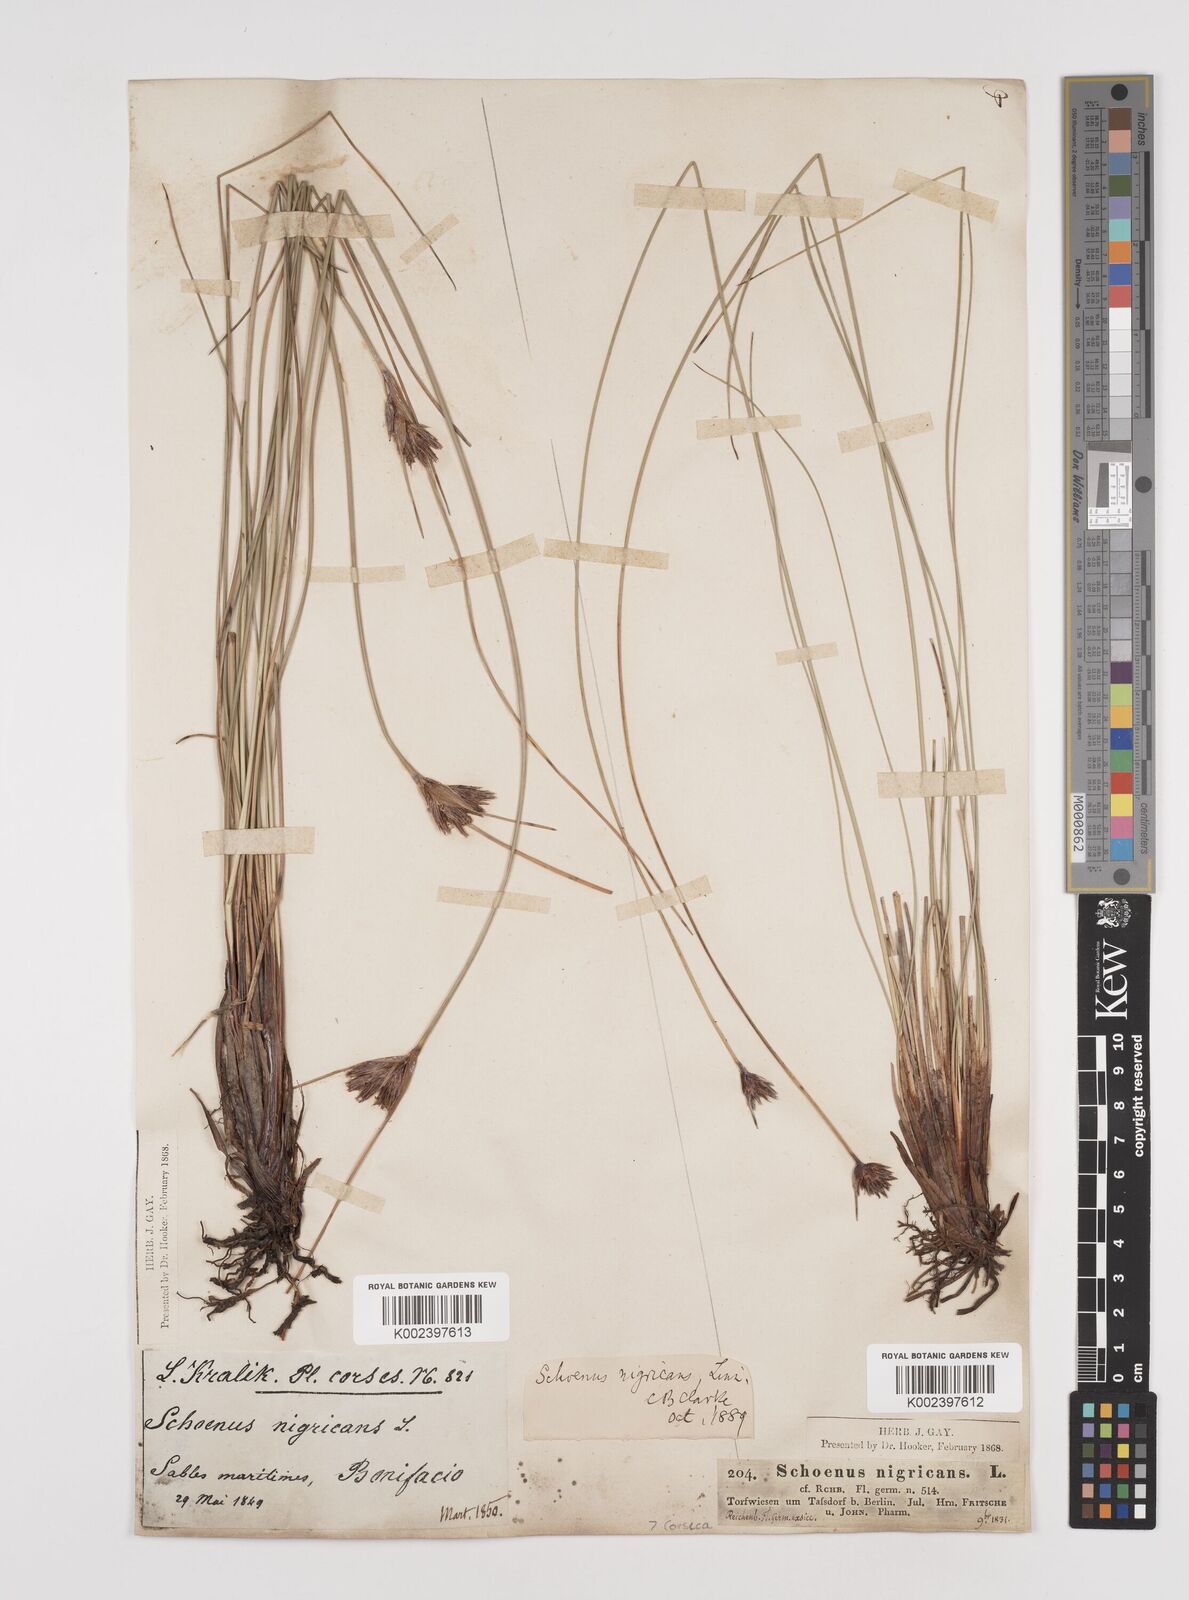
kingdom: Plantae
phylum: Tracheophyta
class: Liliopsida
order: Poales
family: Cyperaceae
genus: Schoenus
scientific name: Schoenus nigricans
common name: Black bog-rush
